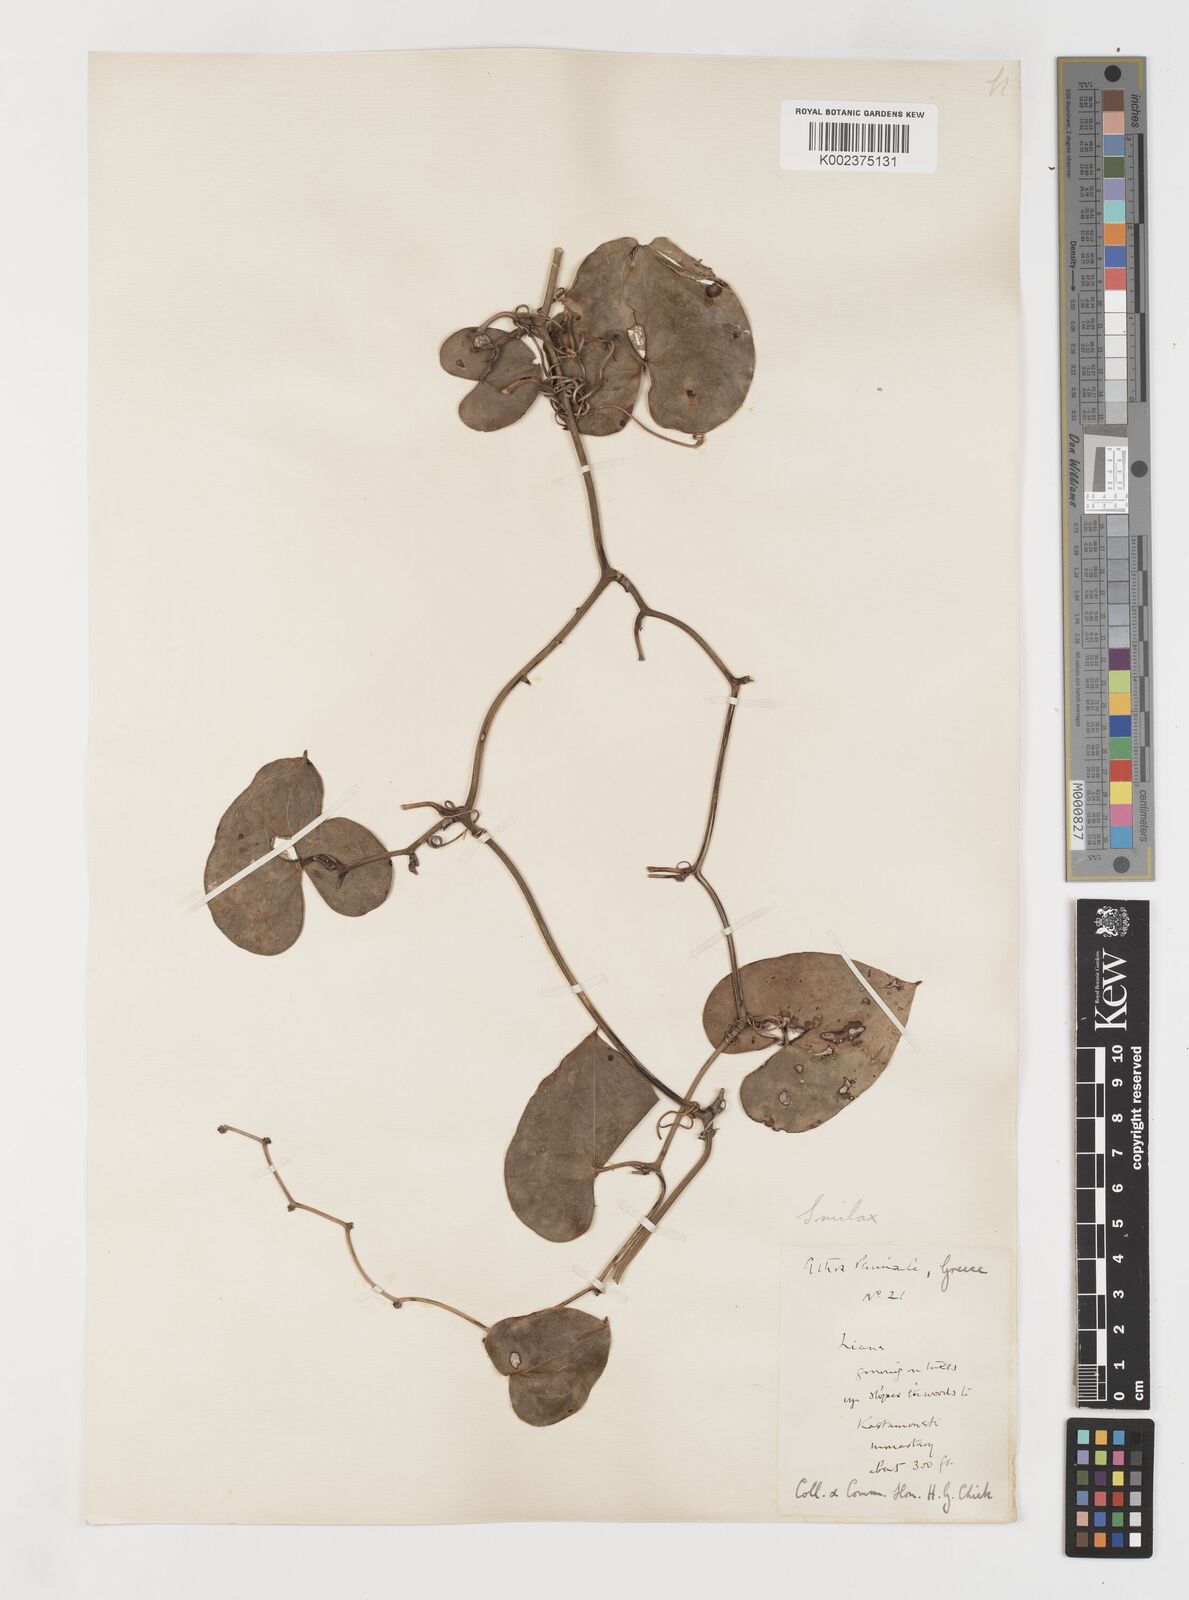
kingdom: Plantae
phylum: Tracheophyta
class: Liliopsida
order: Liliales
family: Smilacaceae
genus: Smilax
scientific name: Smilax aspera
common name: Common smilax
